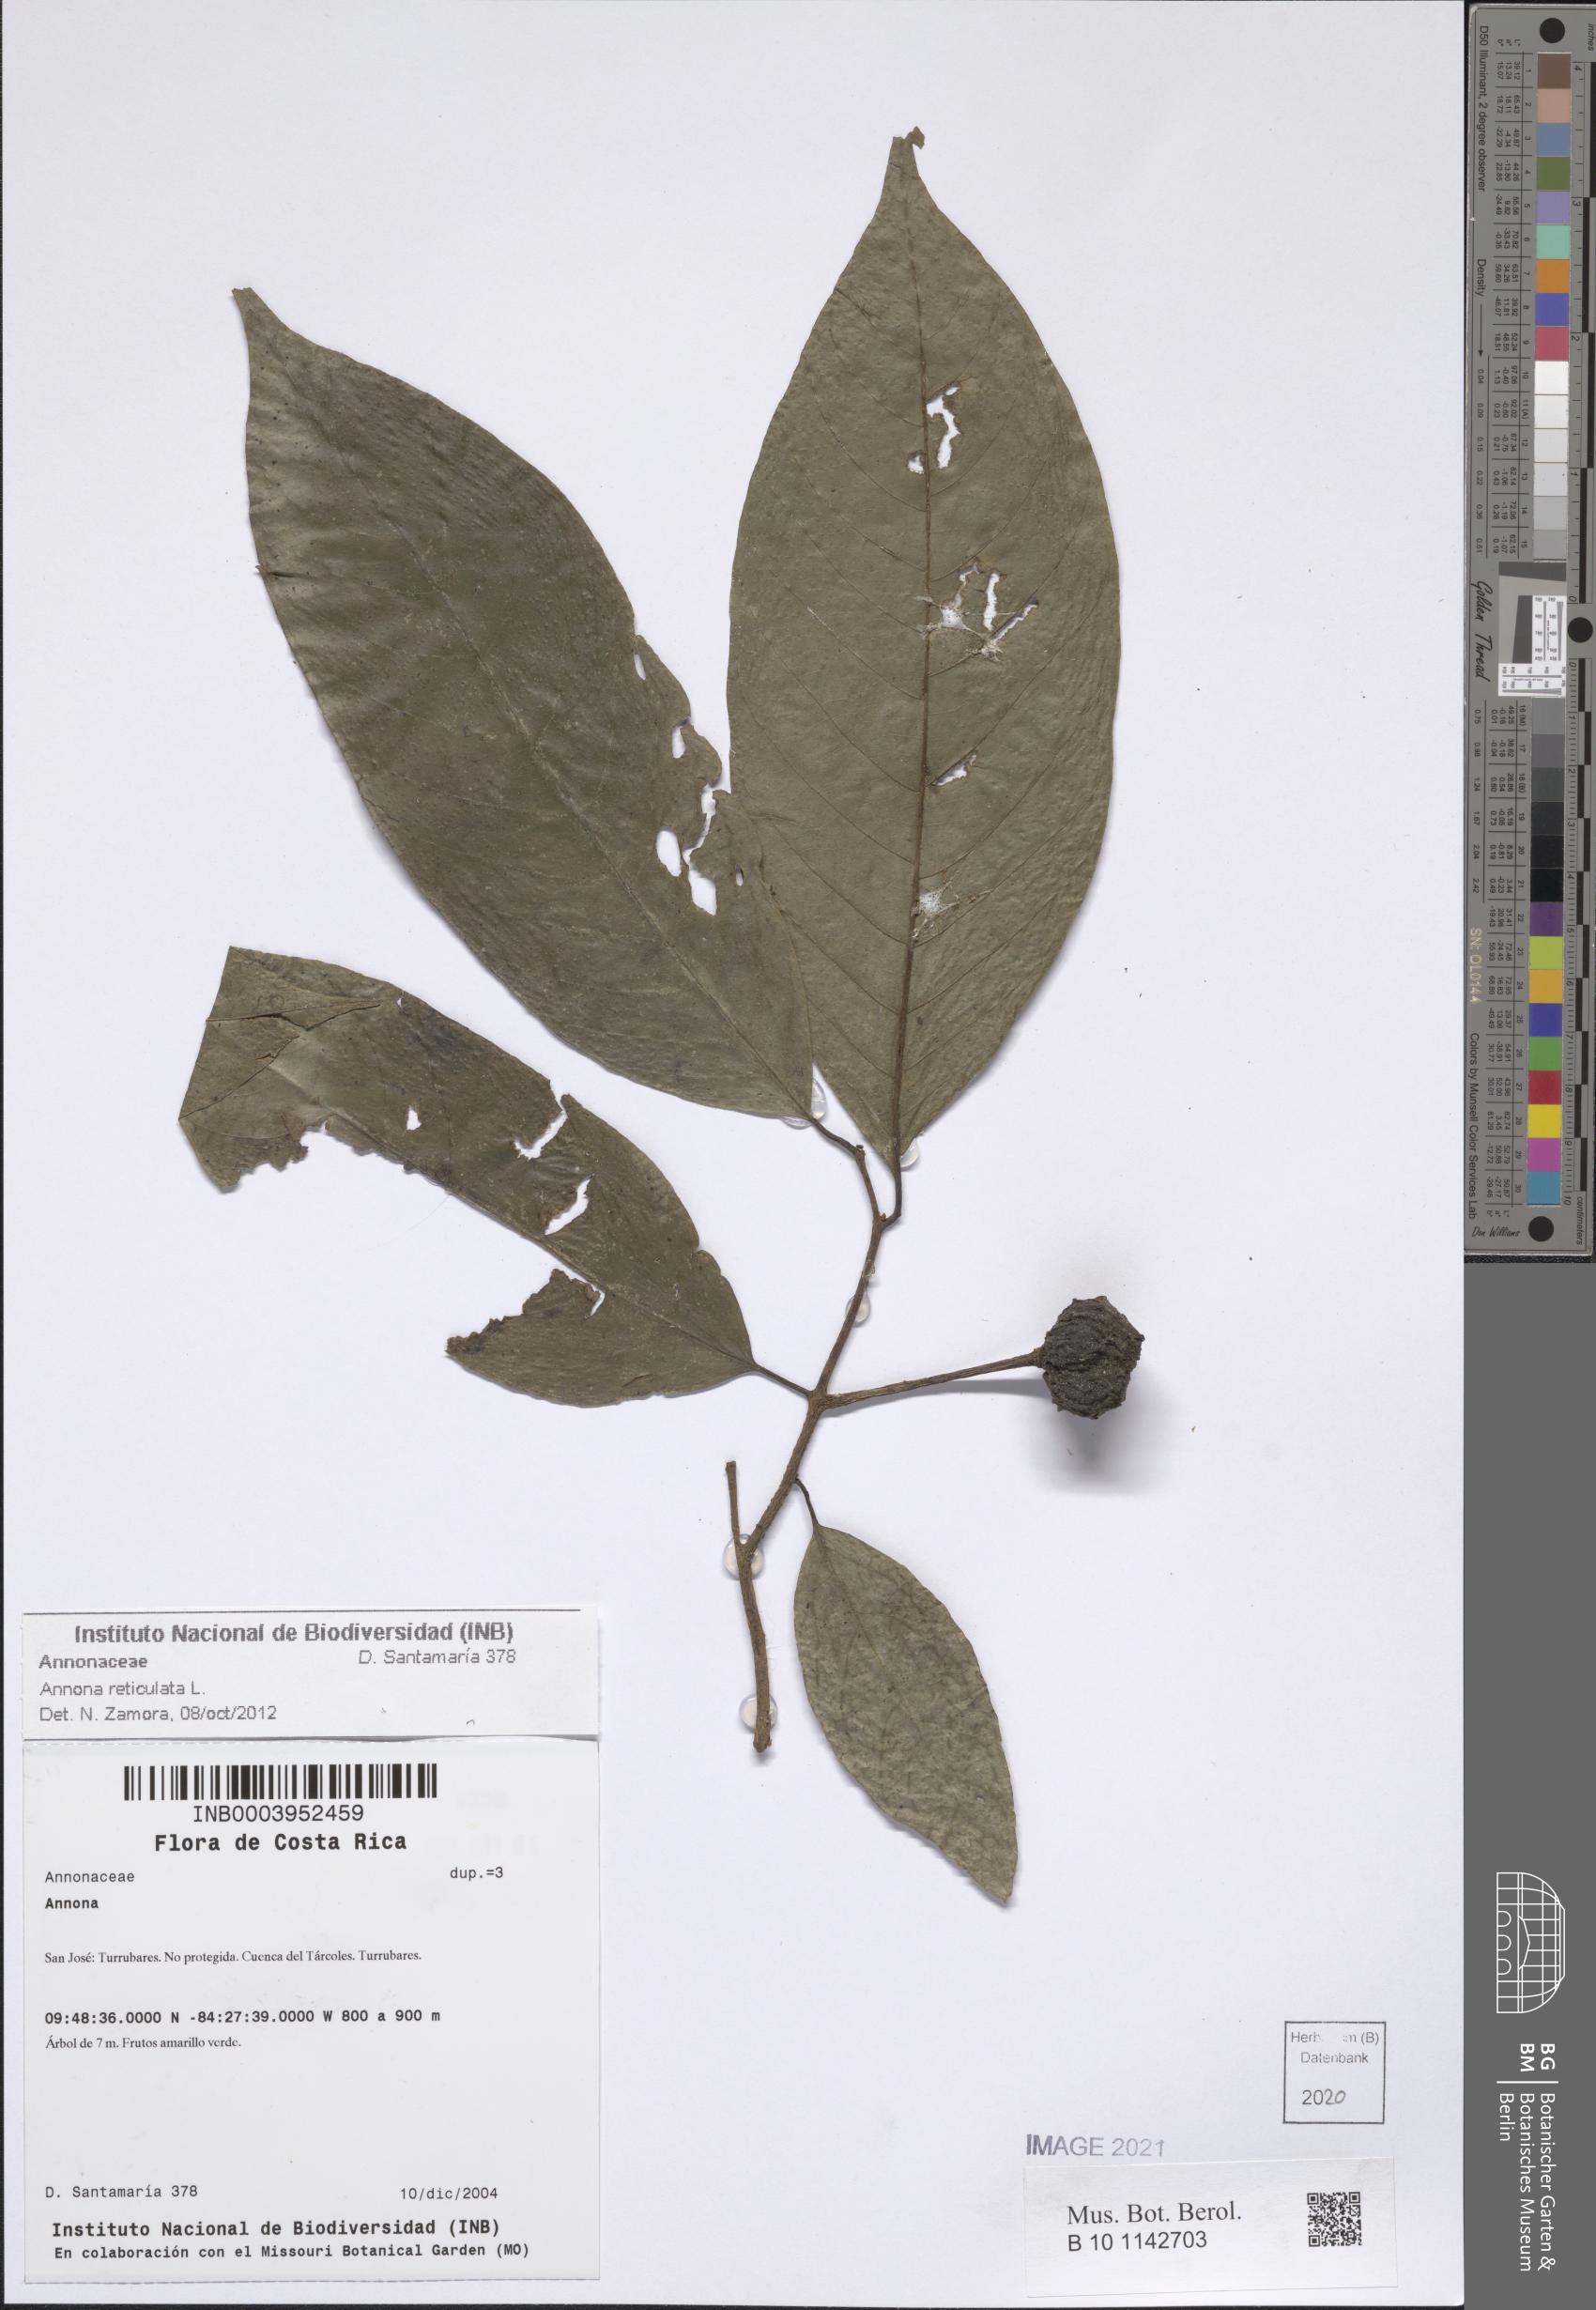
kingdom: Plantae
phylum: Tracheophyta
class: Magnoliopsida
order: Magnoliales
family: Annonaceae
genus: Annona
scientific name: Annona reticulata
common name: Custard apple
